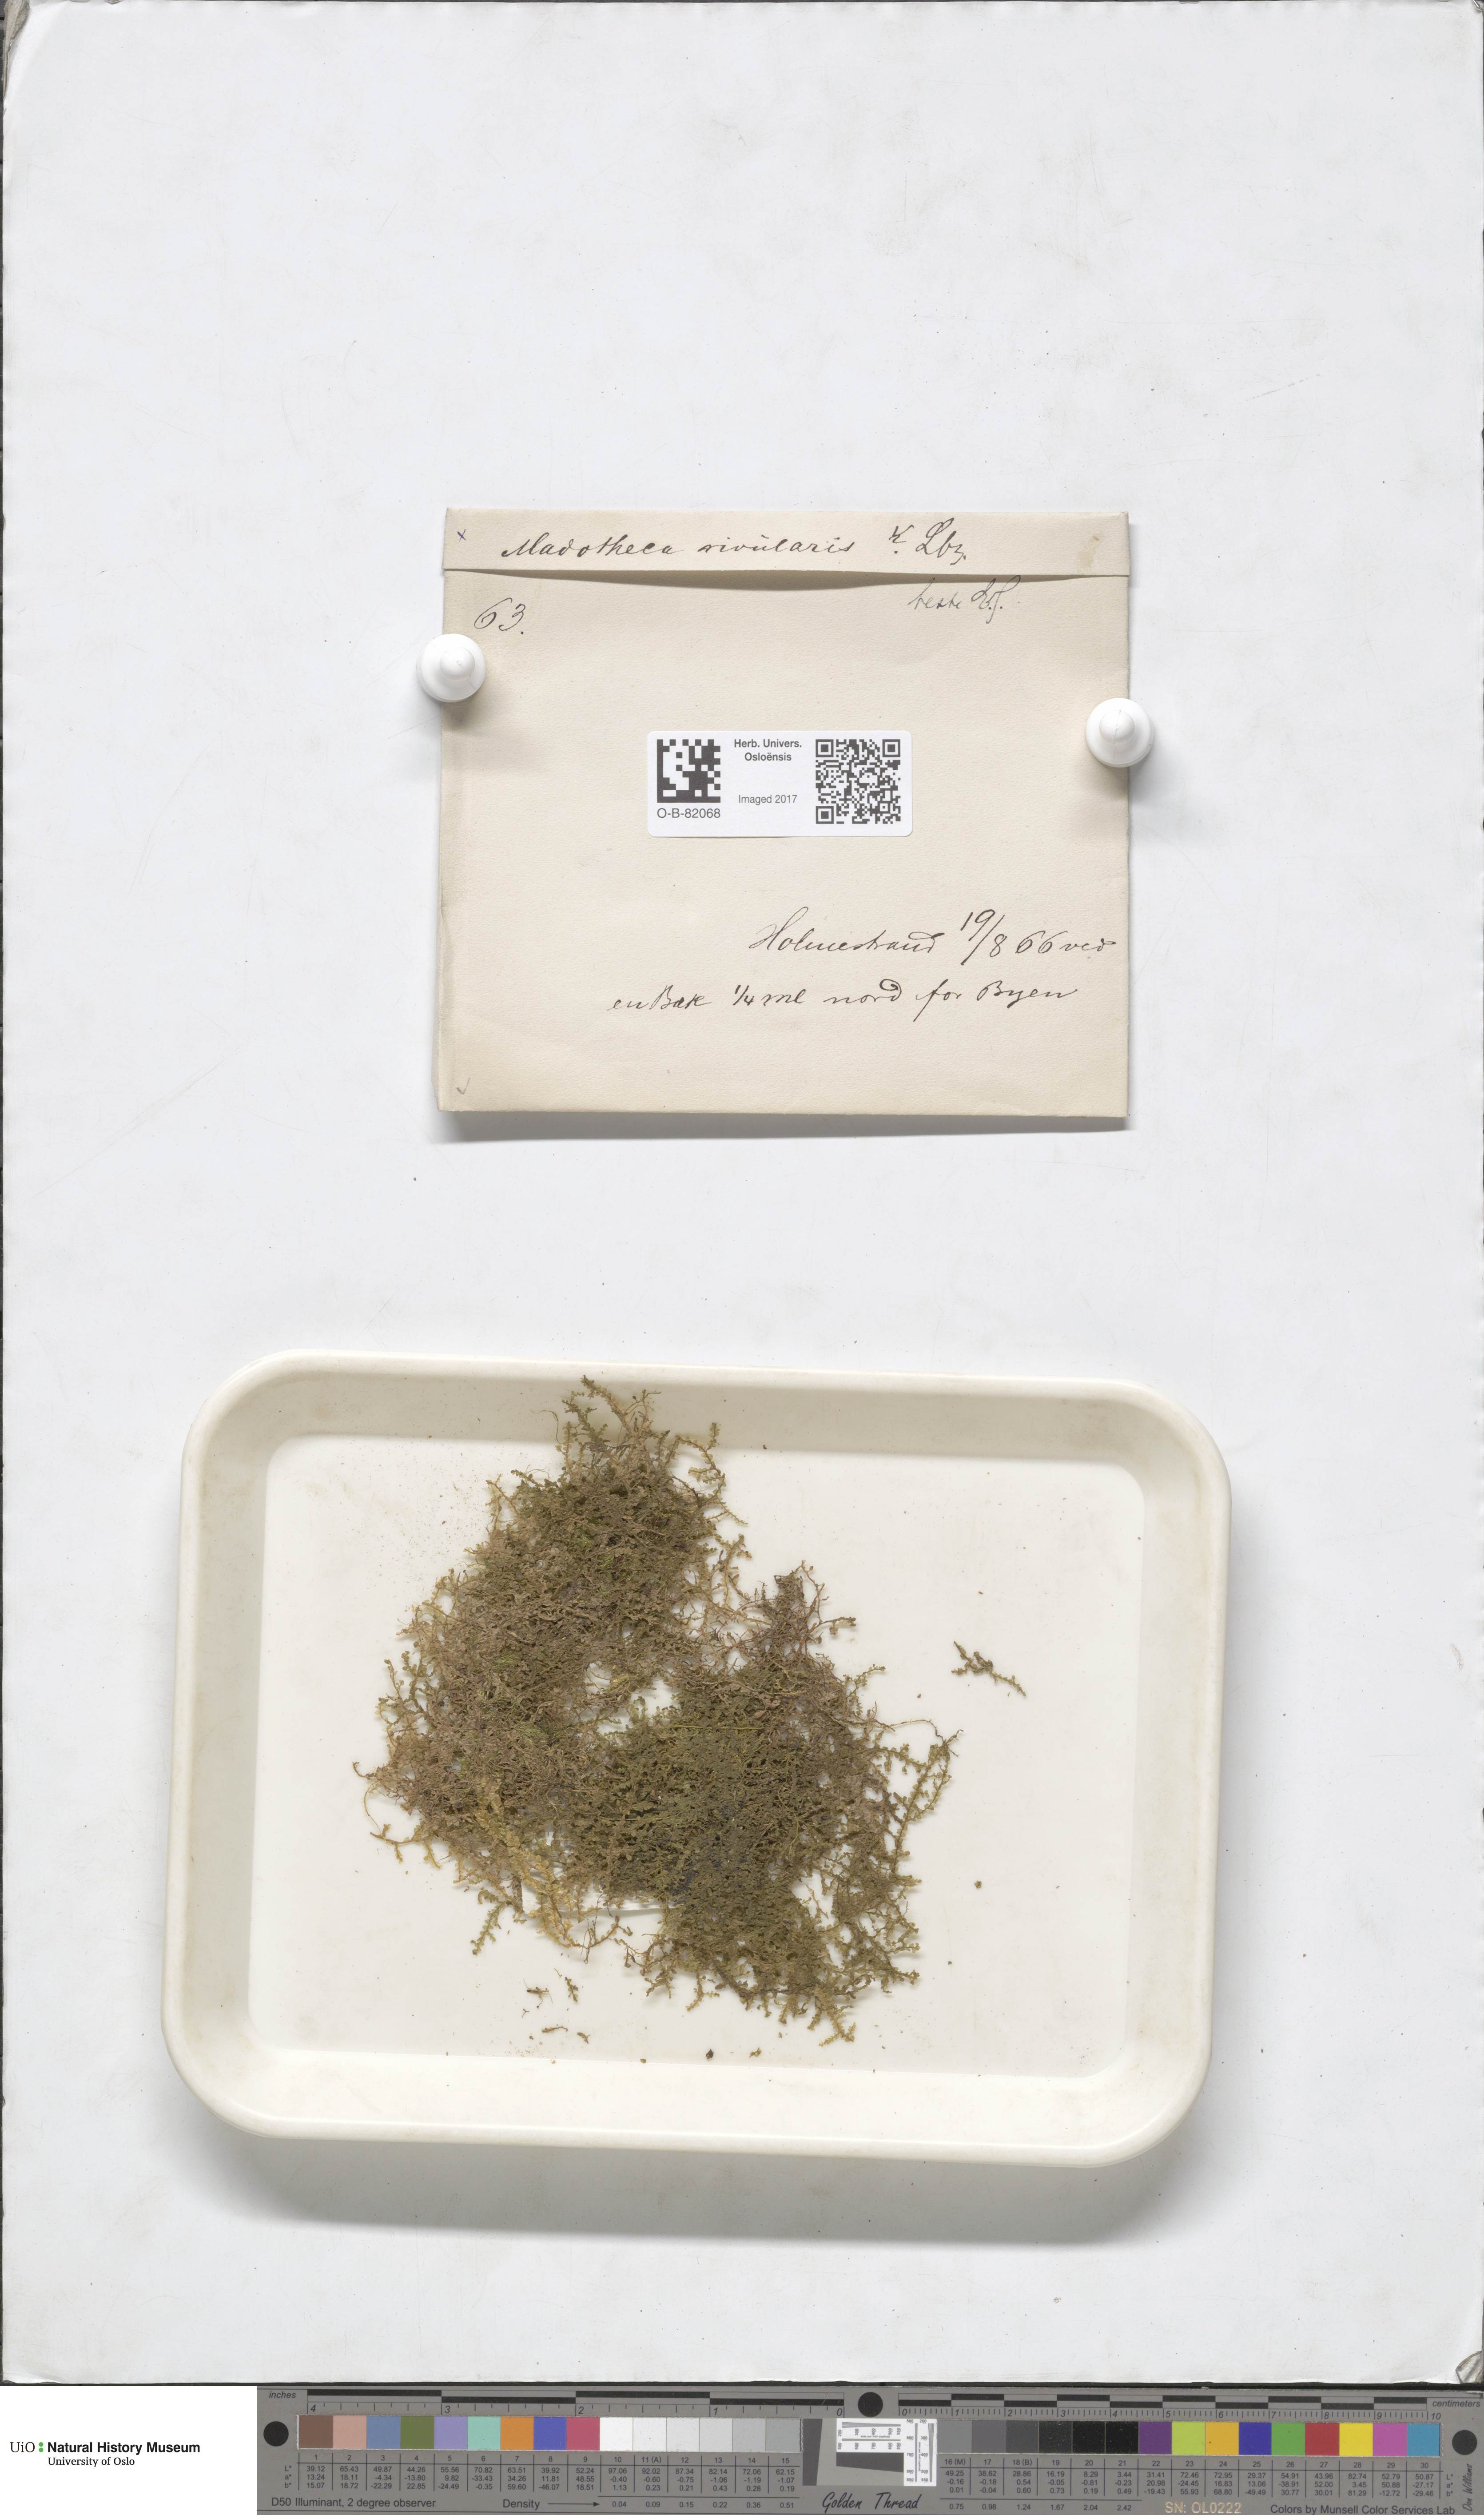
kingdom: Plantae
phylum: Marchantiophyta
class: Jungermanniopsida
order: Porellales
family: Porellaceae
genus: Porella
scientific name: Porella cordaeana
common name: Cliff scalewort
